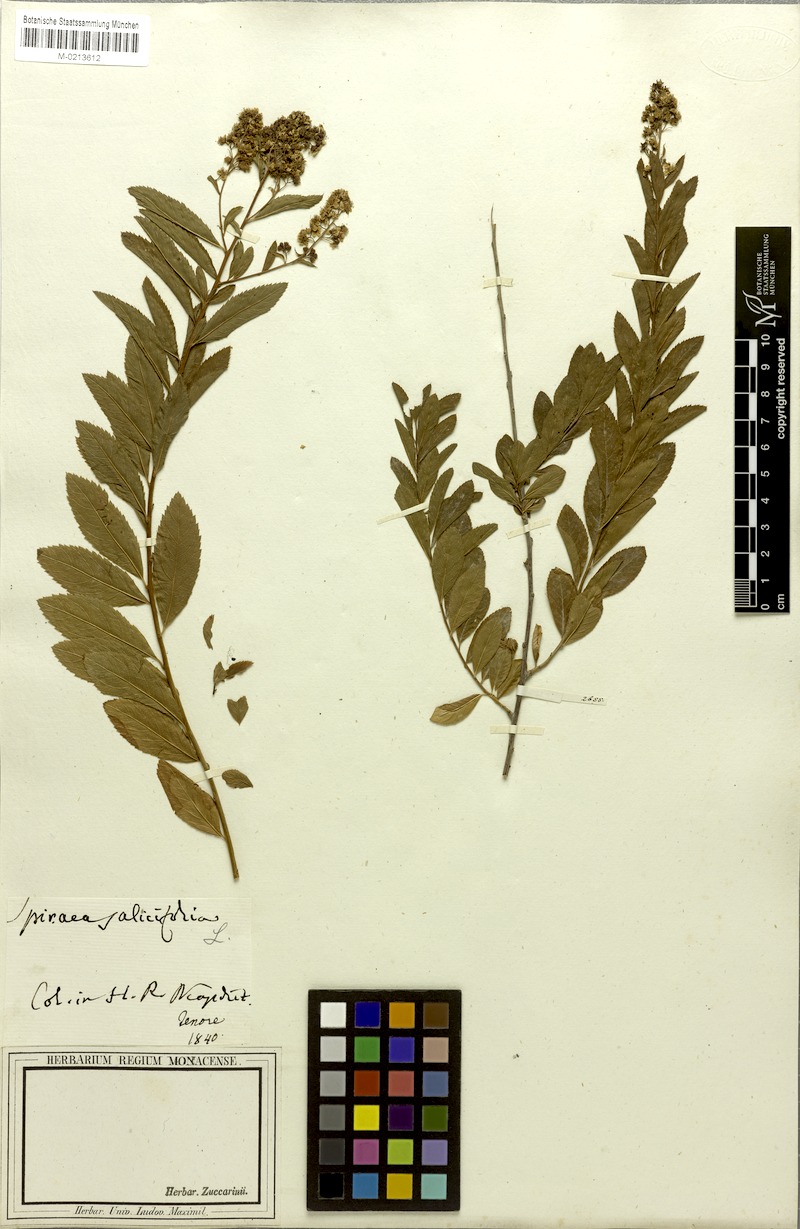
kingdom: Plantae
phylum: Tracheophyta
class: Magnoliopsida
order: Rosales
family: Rosaceae
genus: Spiraea
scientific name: Spiraea salicifolia
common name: Bridewort
